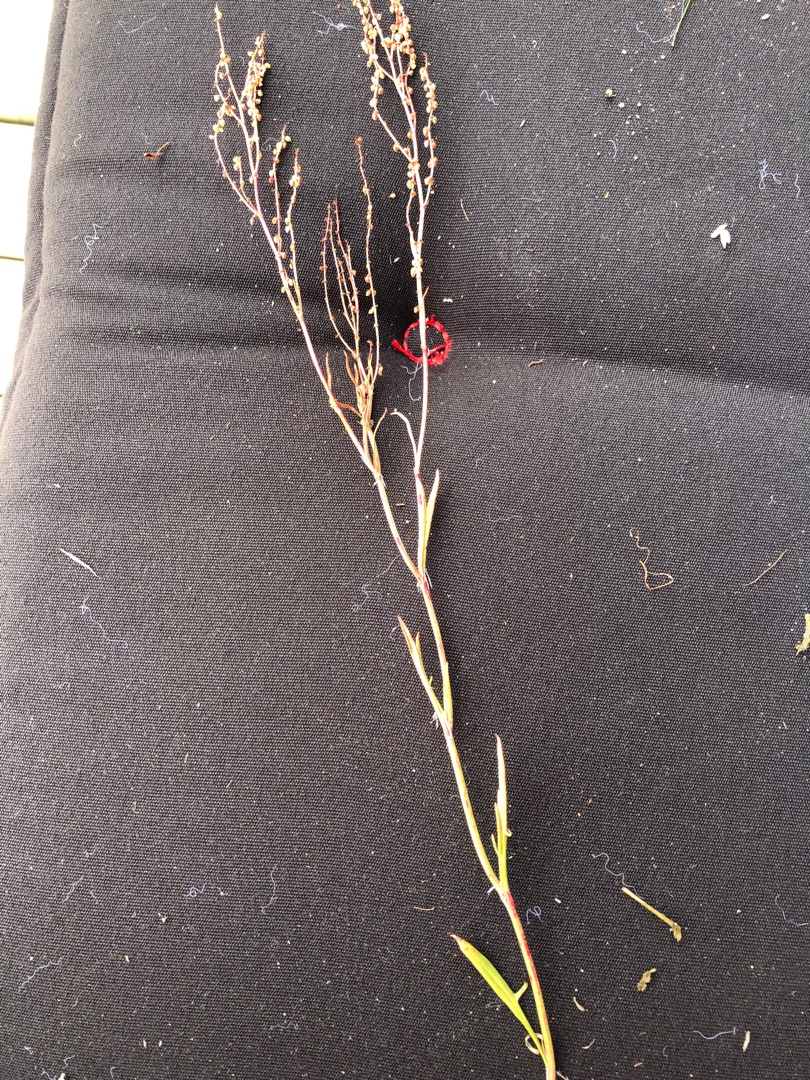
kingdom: Plantae
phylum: Tracheophyta
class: Magnoliopsida
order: Caryophyllales
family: Polygonaceae
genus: Rumex
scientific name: Rumex acetosella
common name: Rødknæ
